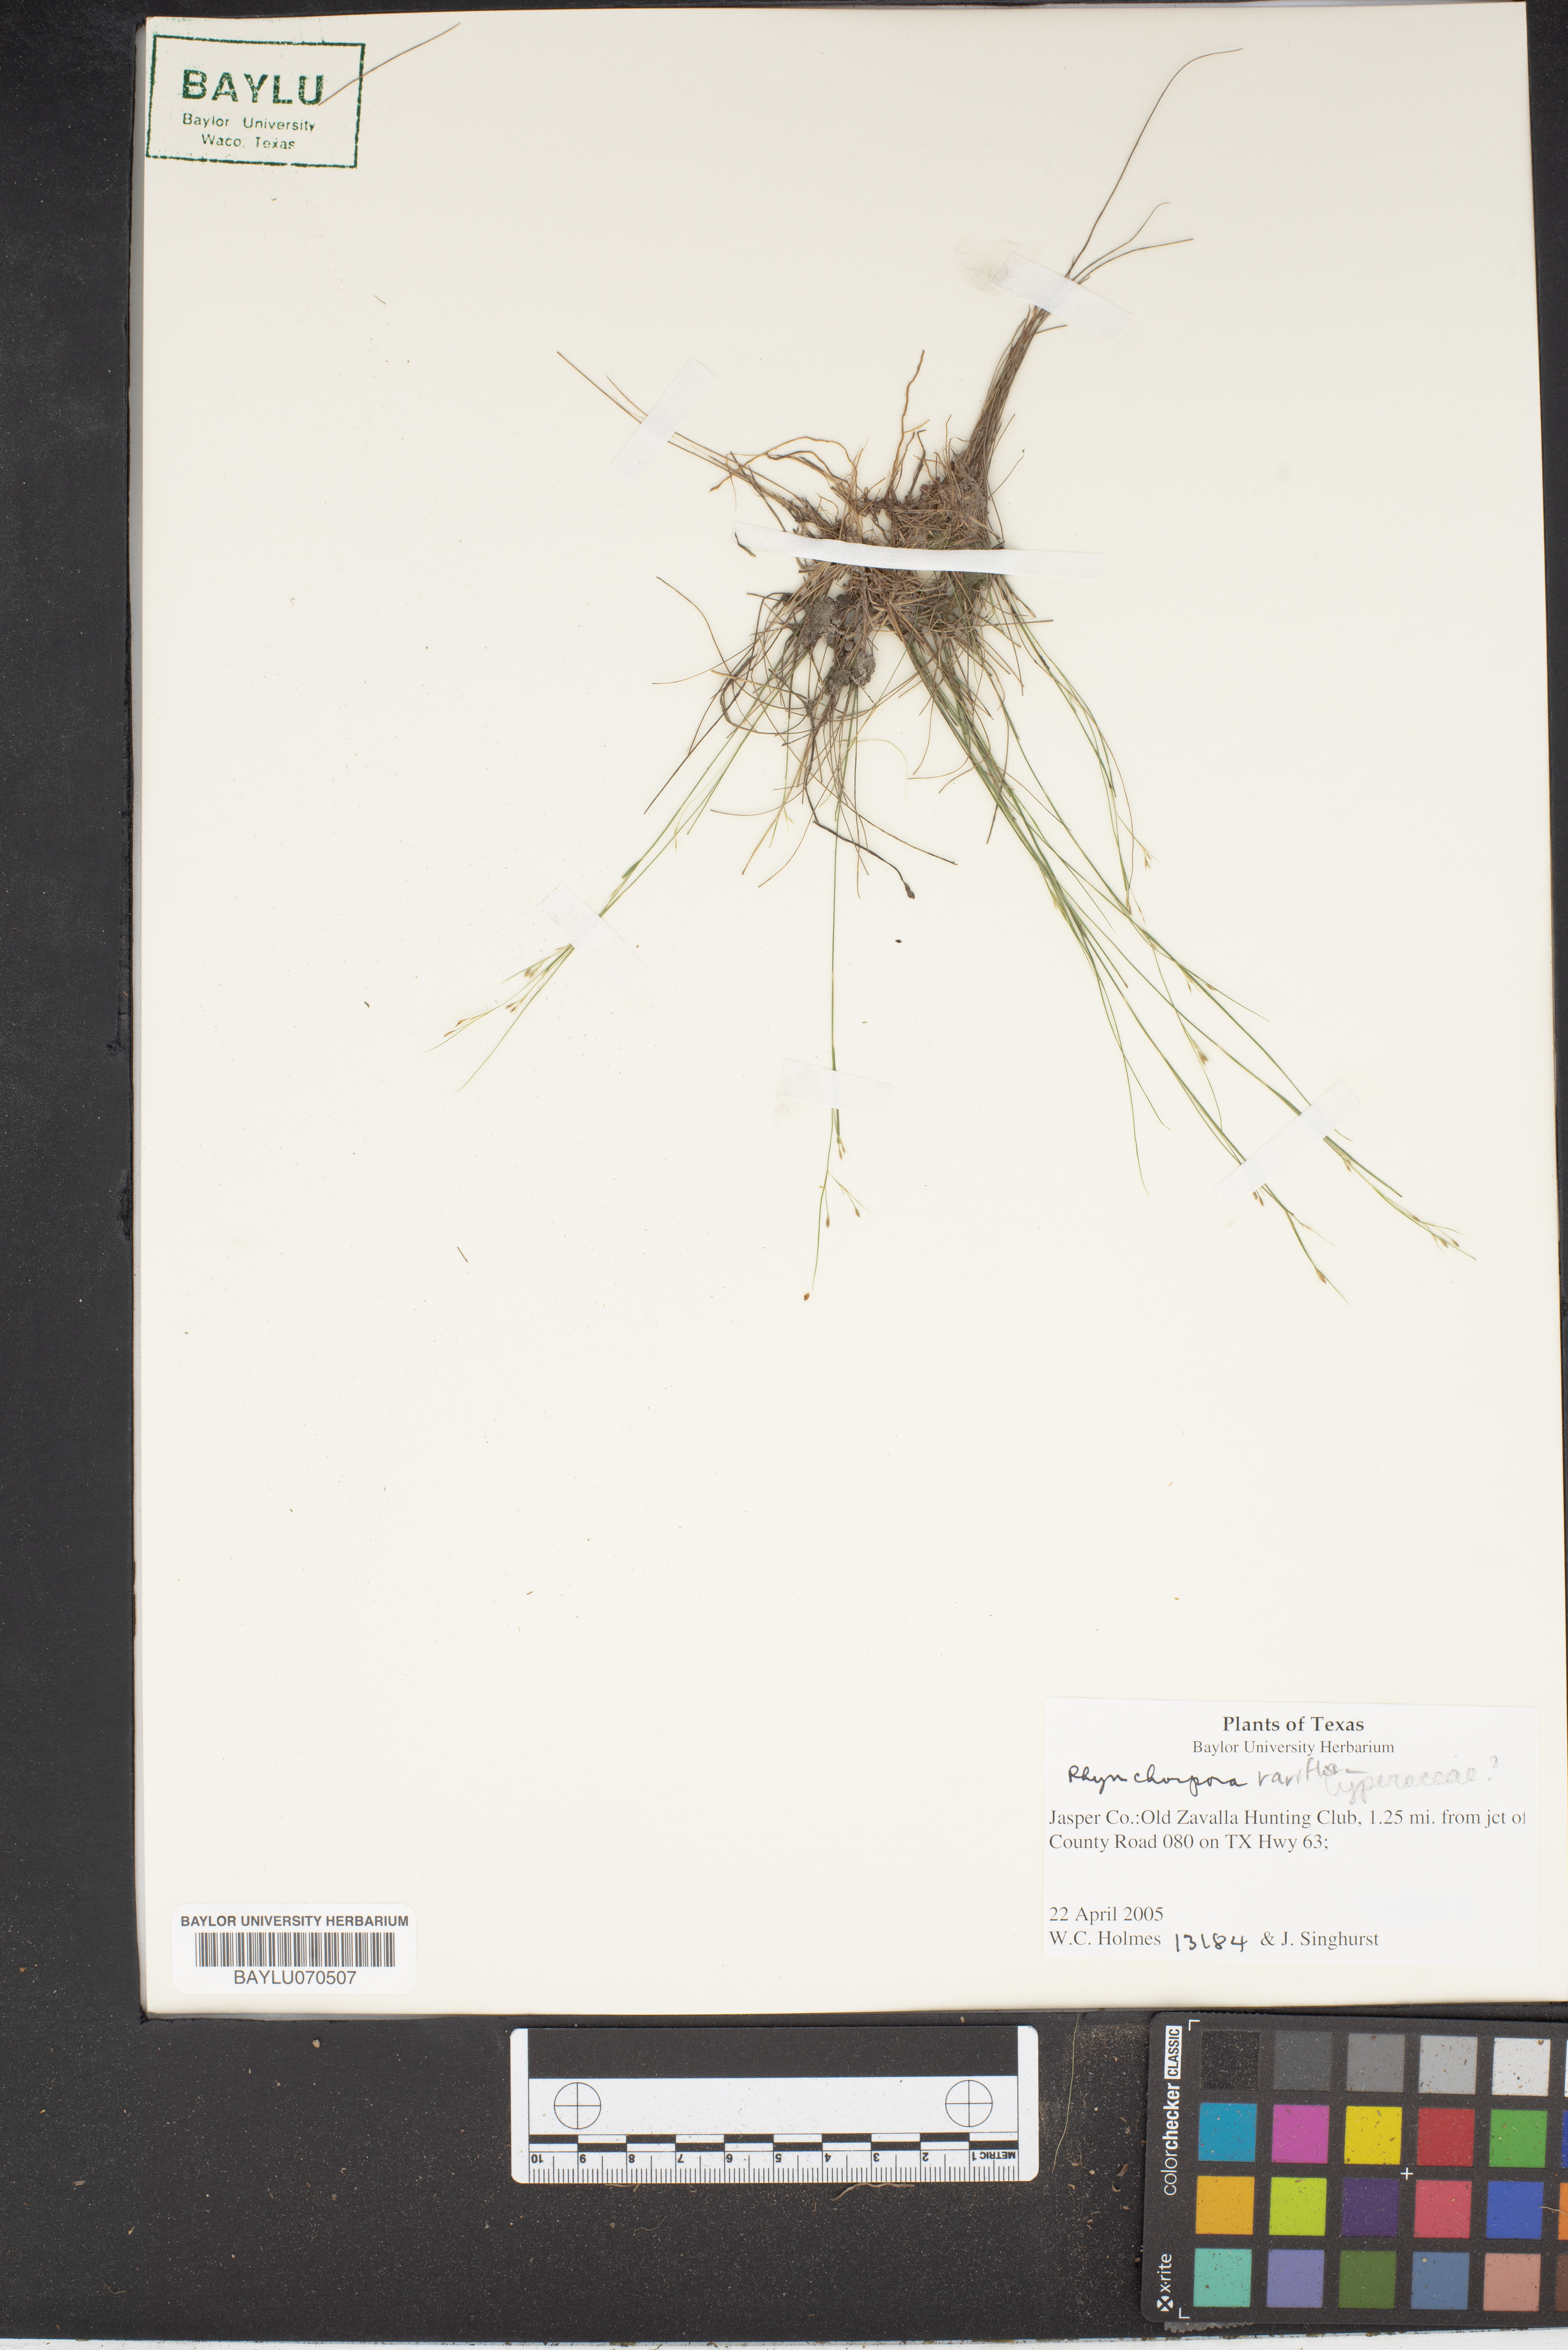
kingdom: Plantae
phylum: Tracheophyta
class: Liliopsida
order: Poales
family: Cyperaceae
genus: Rhynchospora
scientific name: Rhynchospora rariflora
